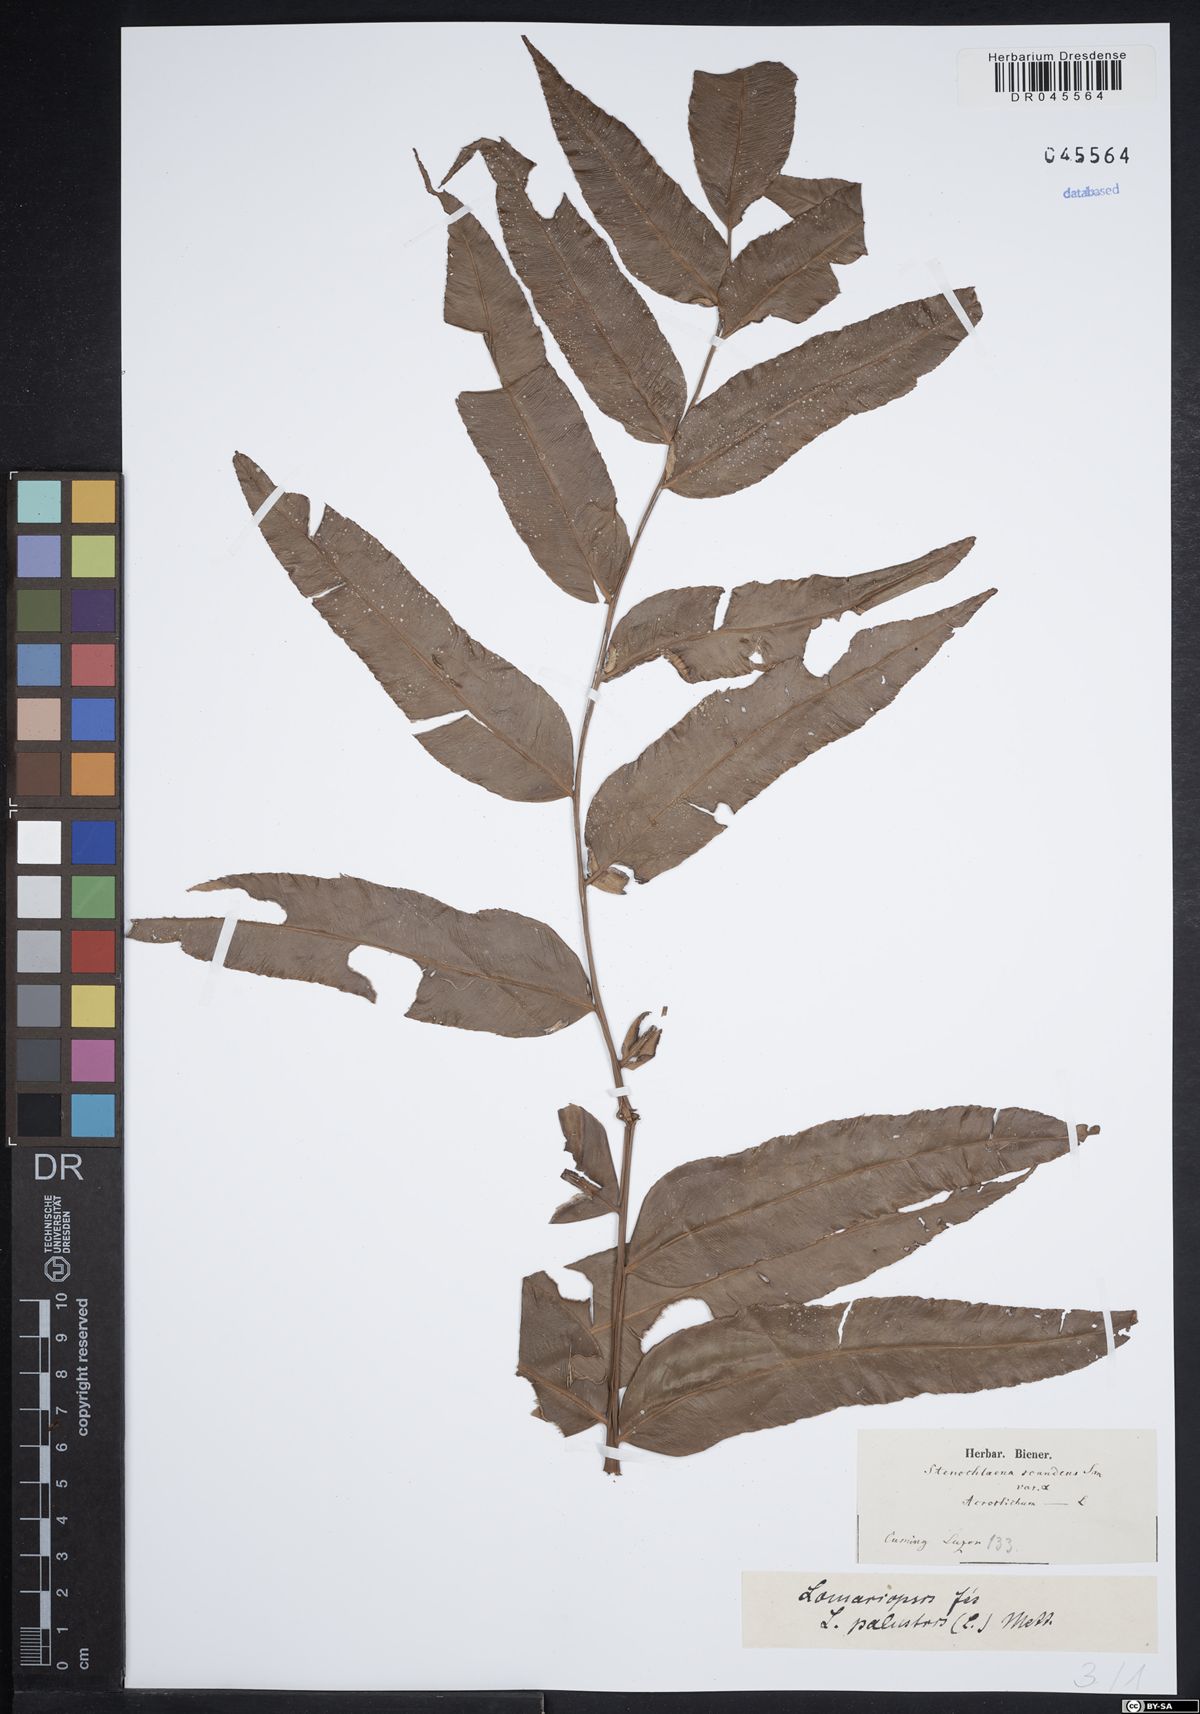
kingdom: Plantae
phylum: Tracheophyta
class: Polypodiopsida
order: Polypodiales
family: Lomariopsidaceae
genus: Lomariopsis
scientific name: Lomariopsis palustris
